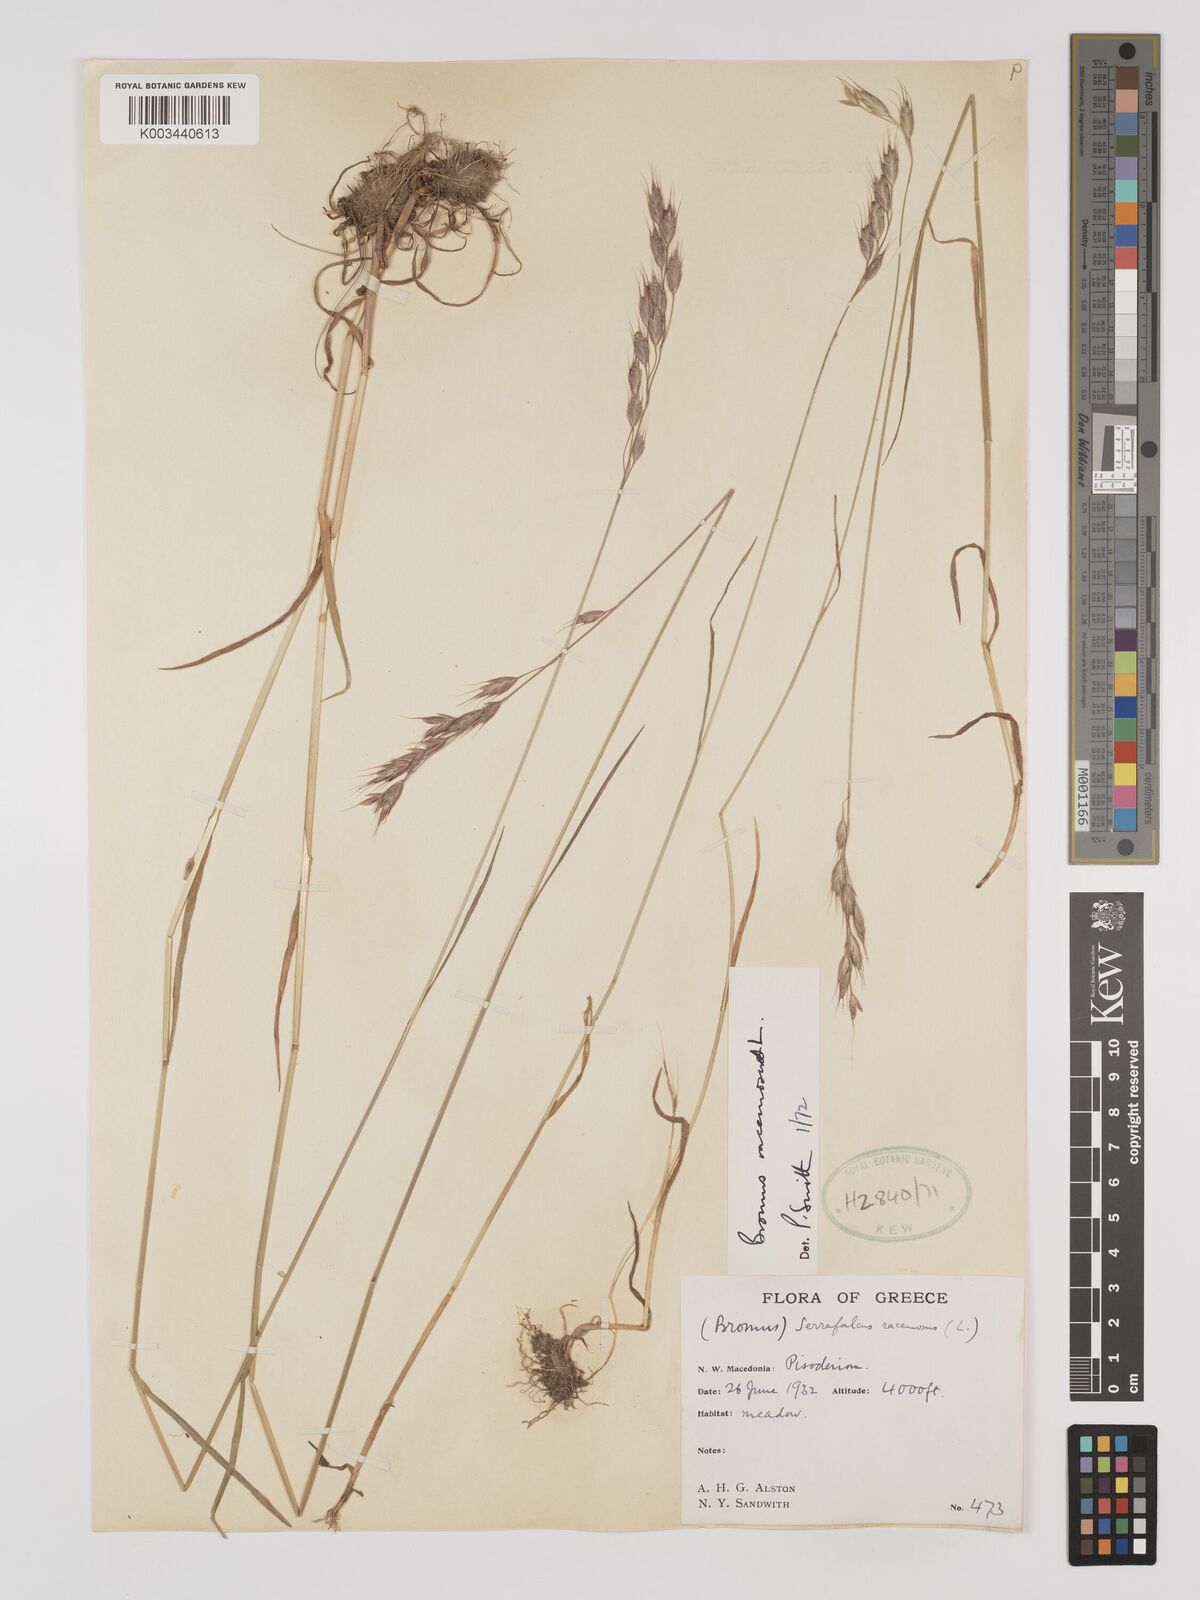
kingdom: Plantae
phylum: Tracheophyta
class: Liliopsida
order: Poales
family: Poaceae
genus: Bromus
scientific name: Bromus racemosus
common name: Bald brome
